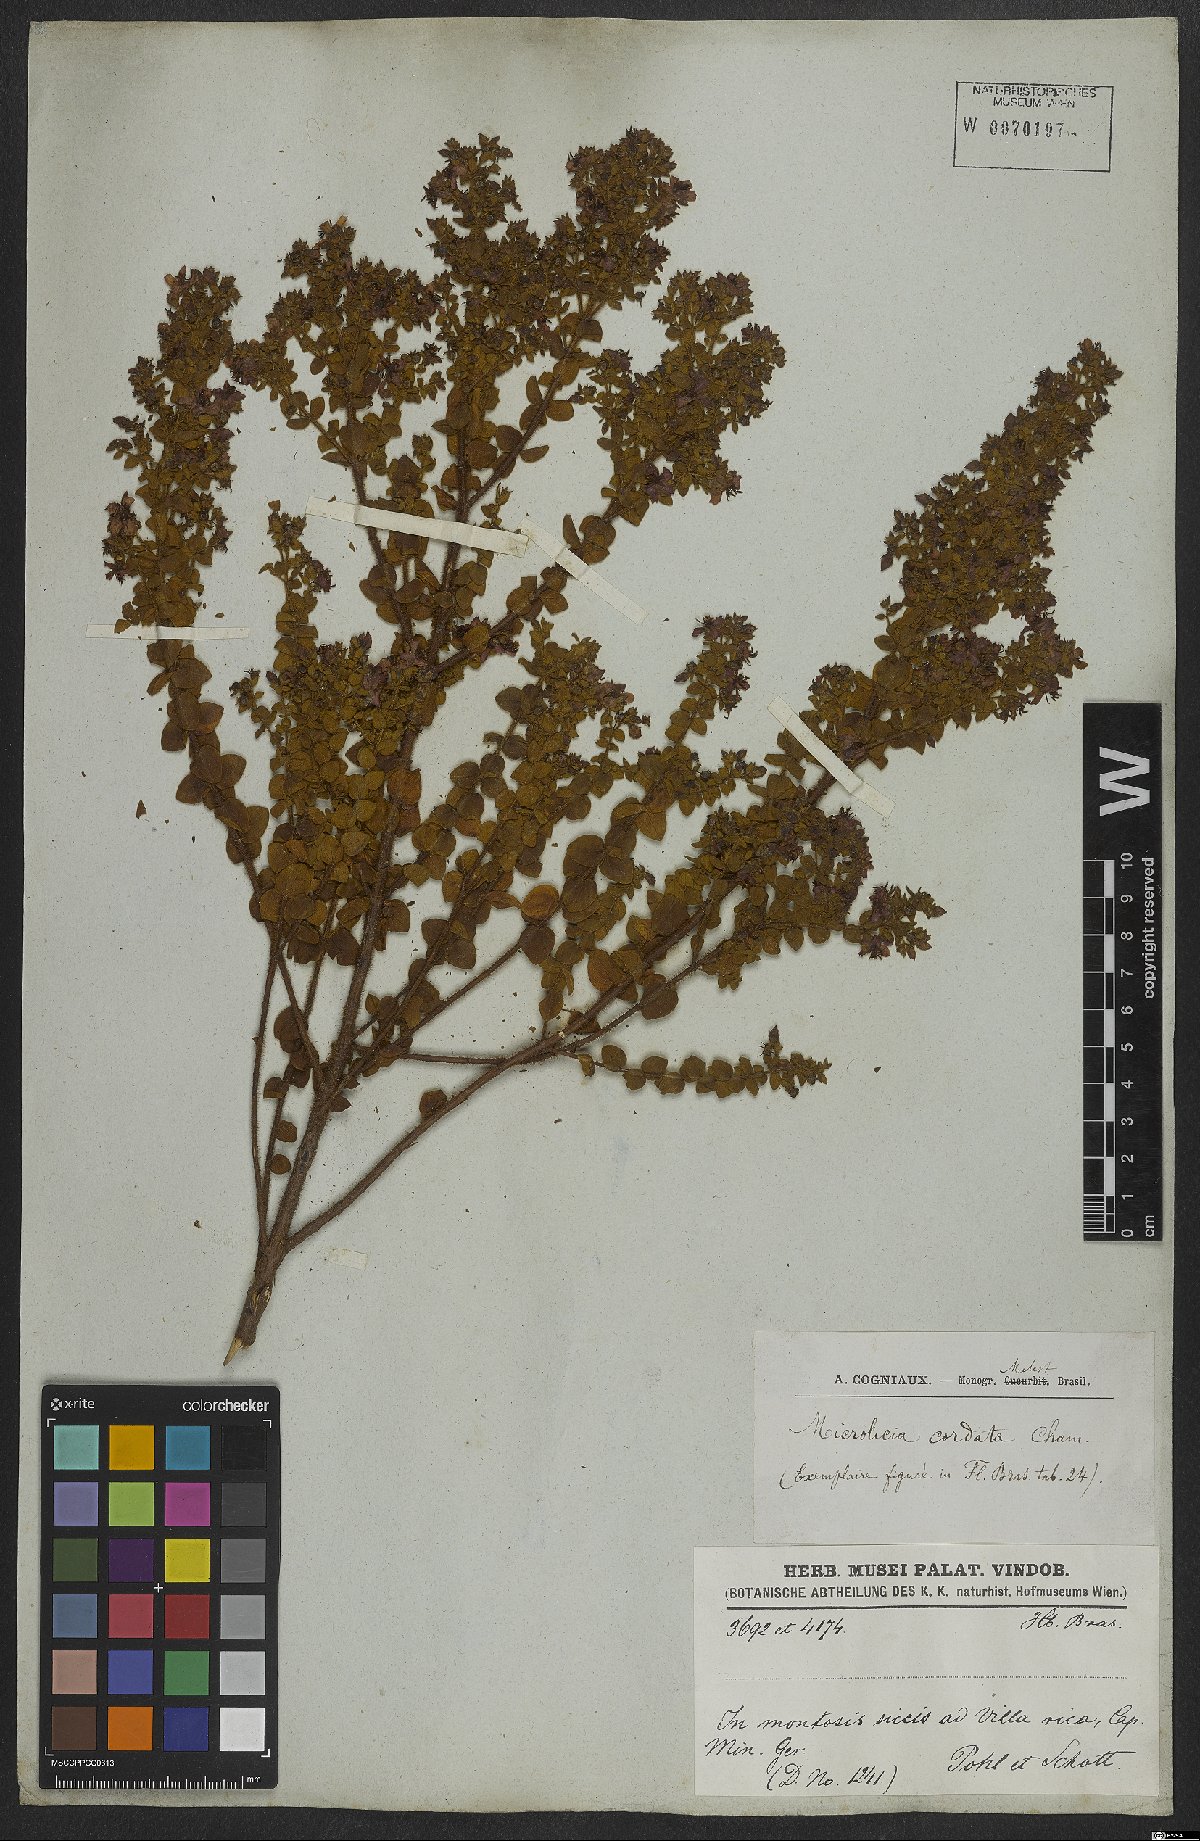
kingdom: Plantae
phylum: Tracheophyta
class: Magnoliopsida
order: Myrtales
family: Melastomataceae
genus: Microlicia
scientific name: Microlicia cordata
